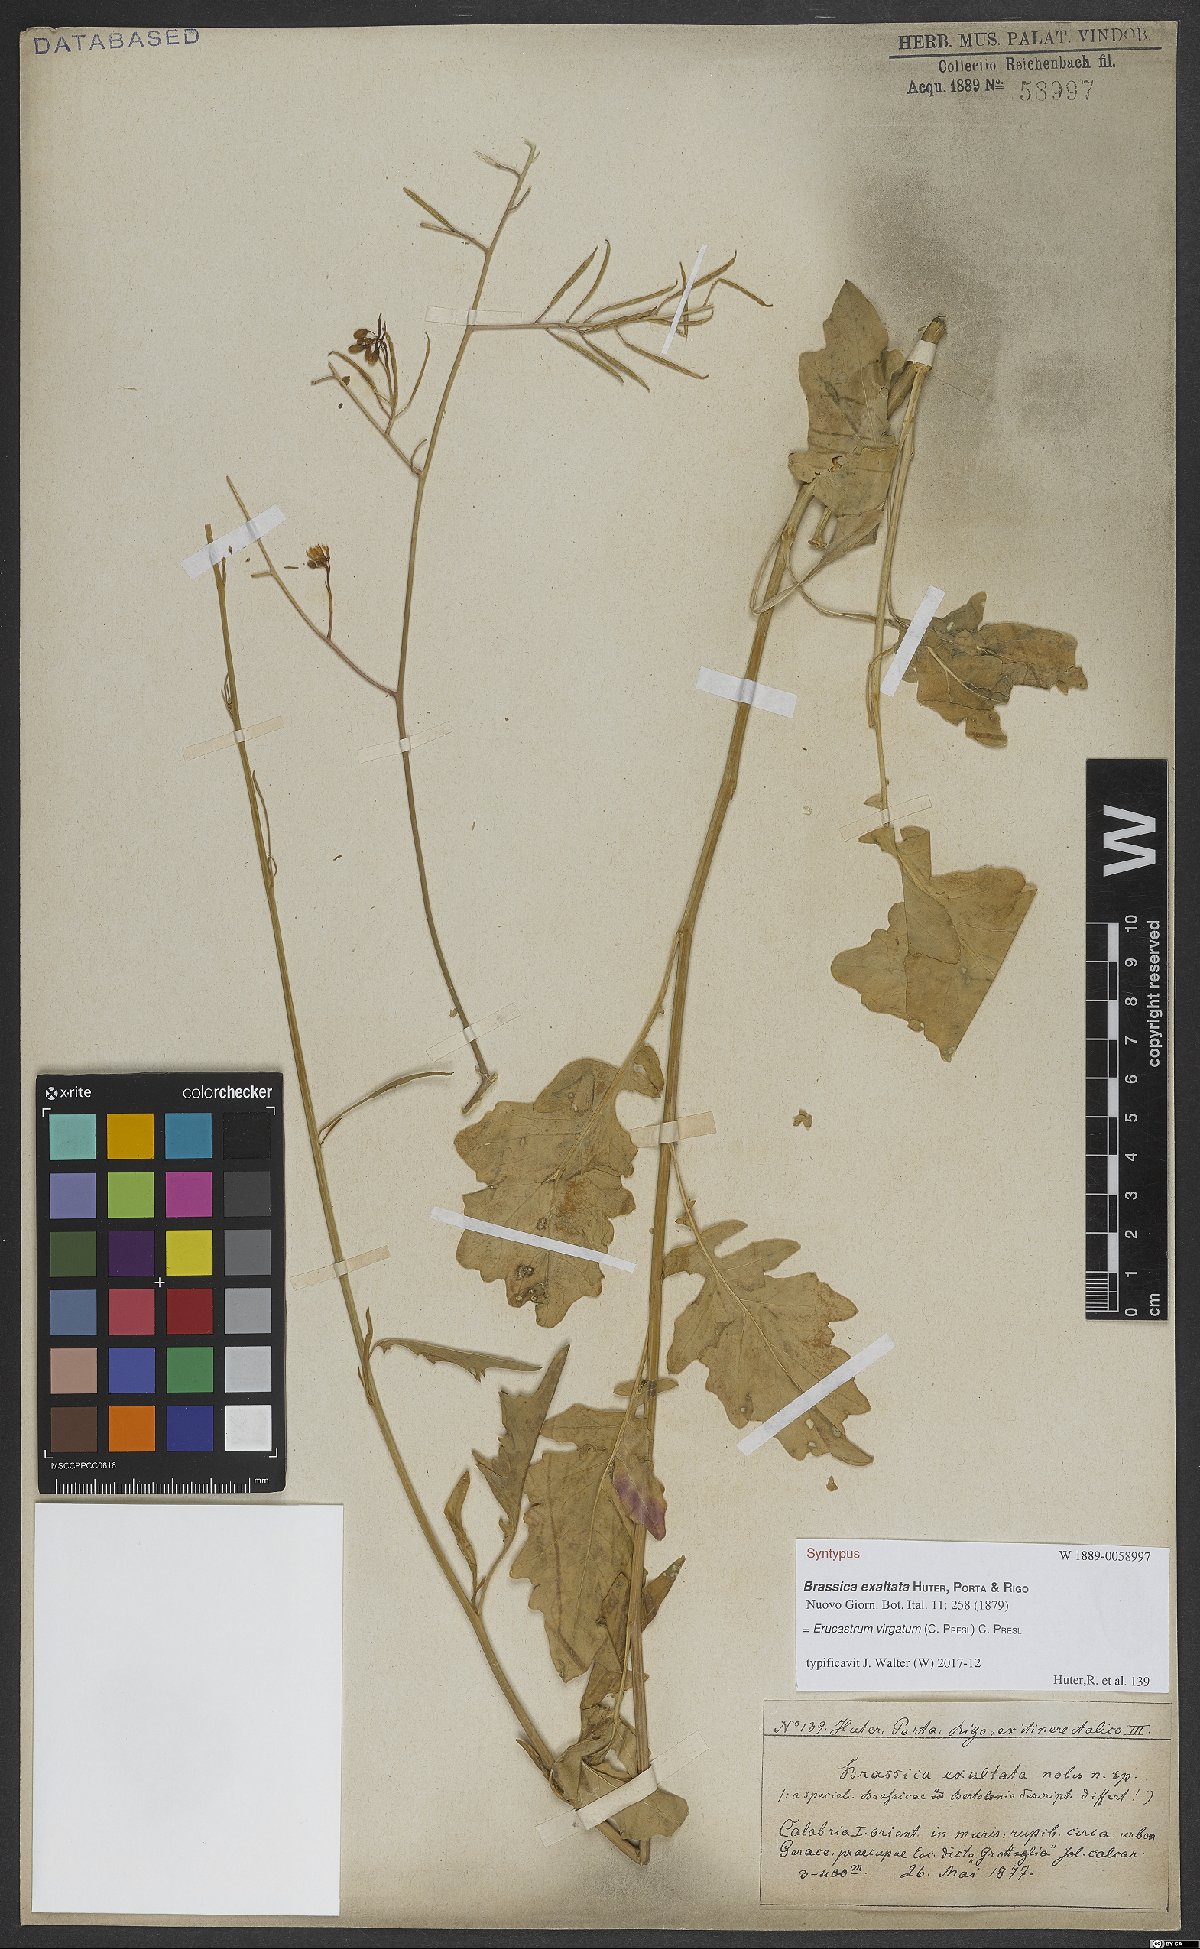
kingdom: Plantae
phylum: Tracheophyta
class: Magnoliopsida
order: Brassicales
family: Brassicaceae
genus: Erucastrum
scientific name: Erucastrum virgatum
